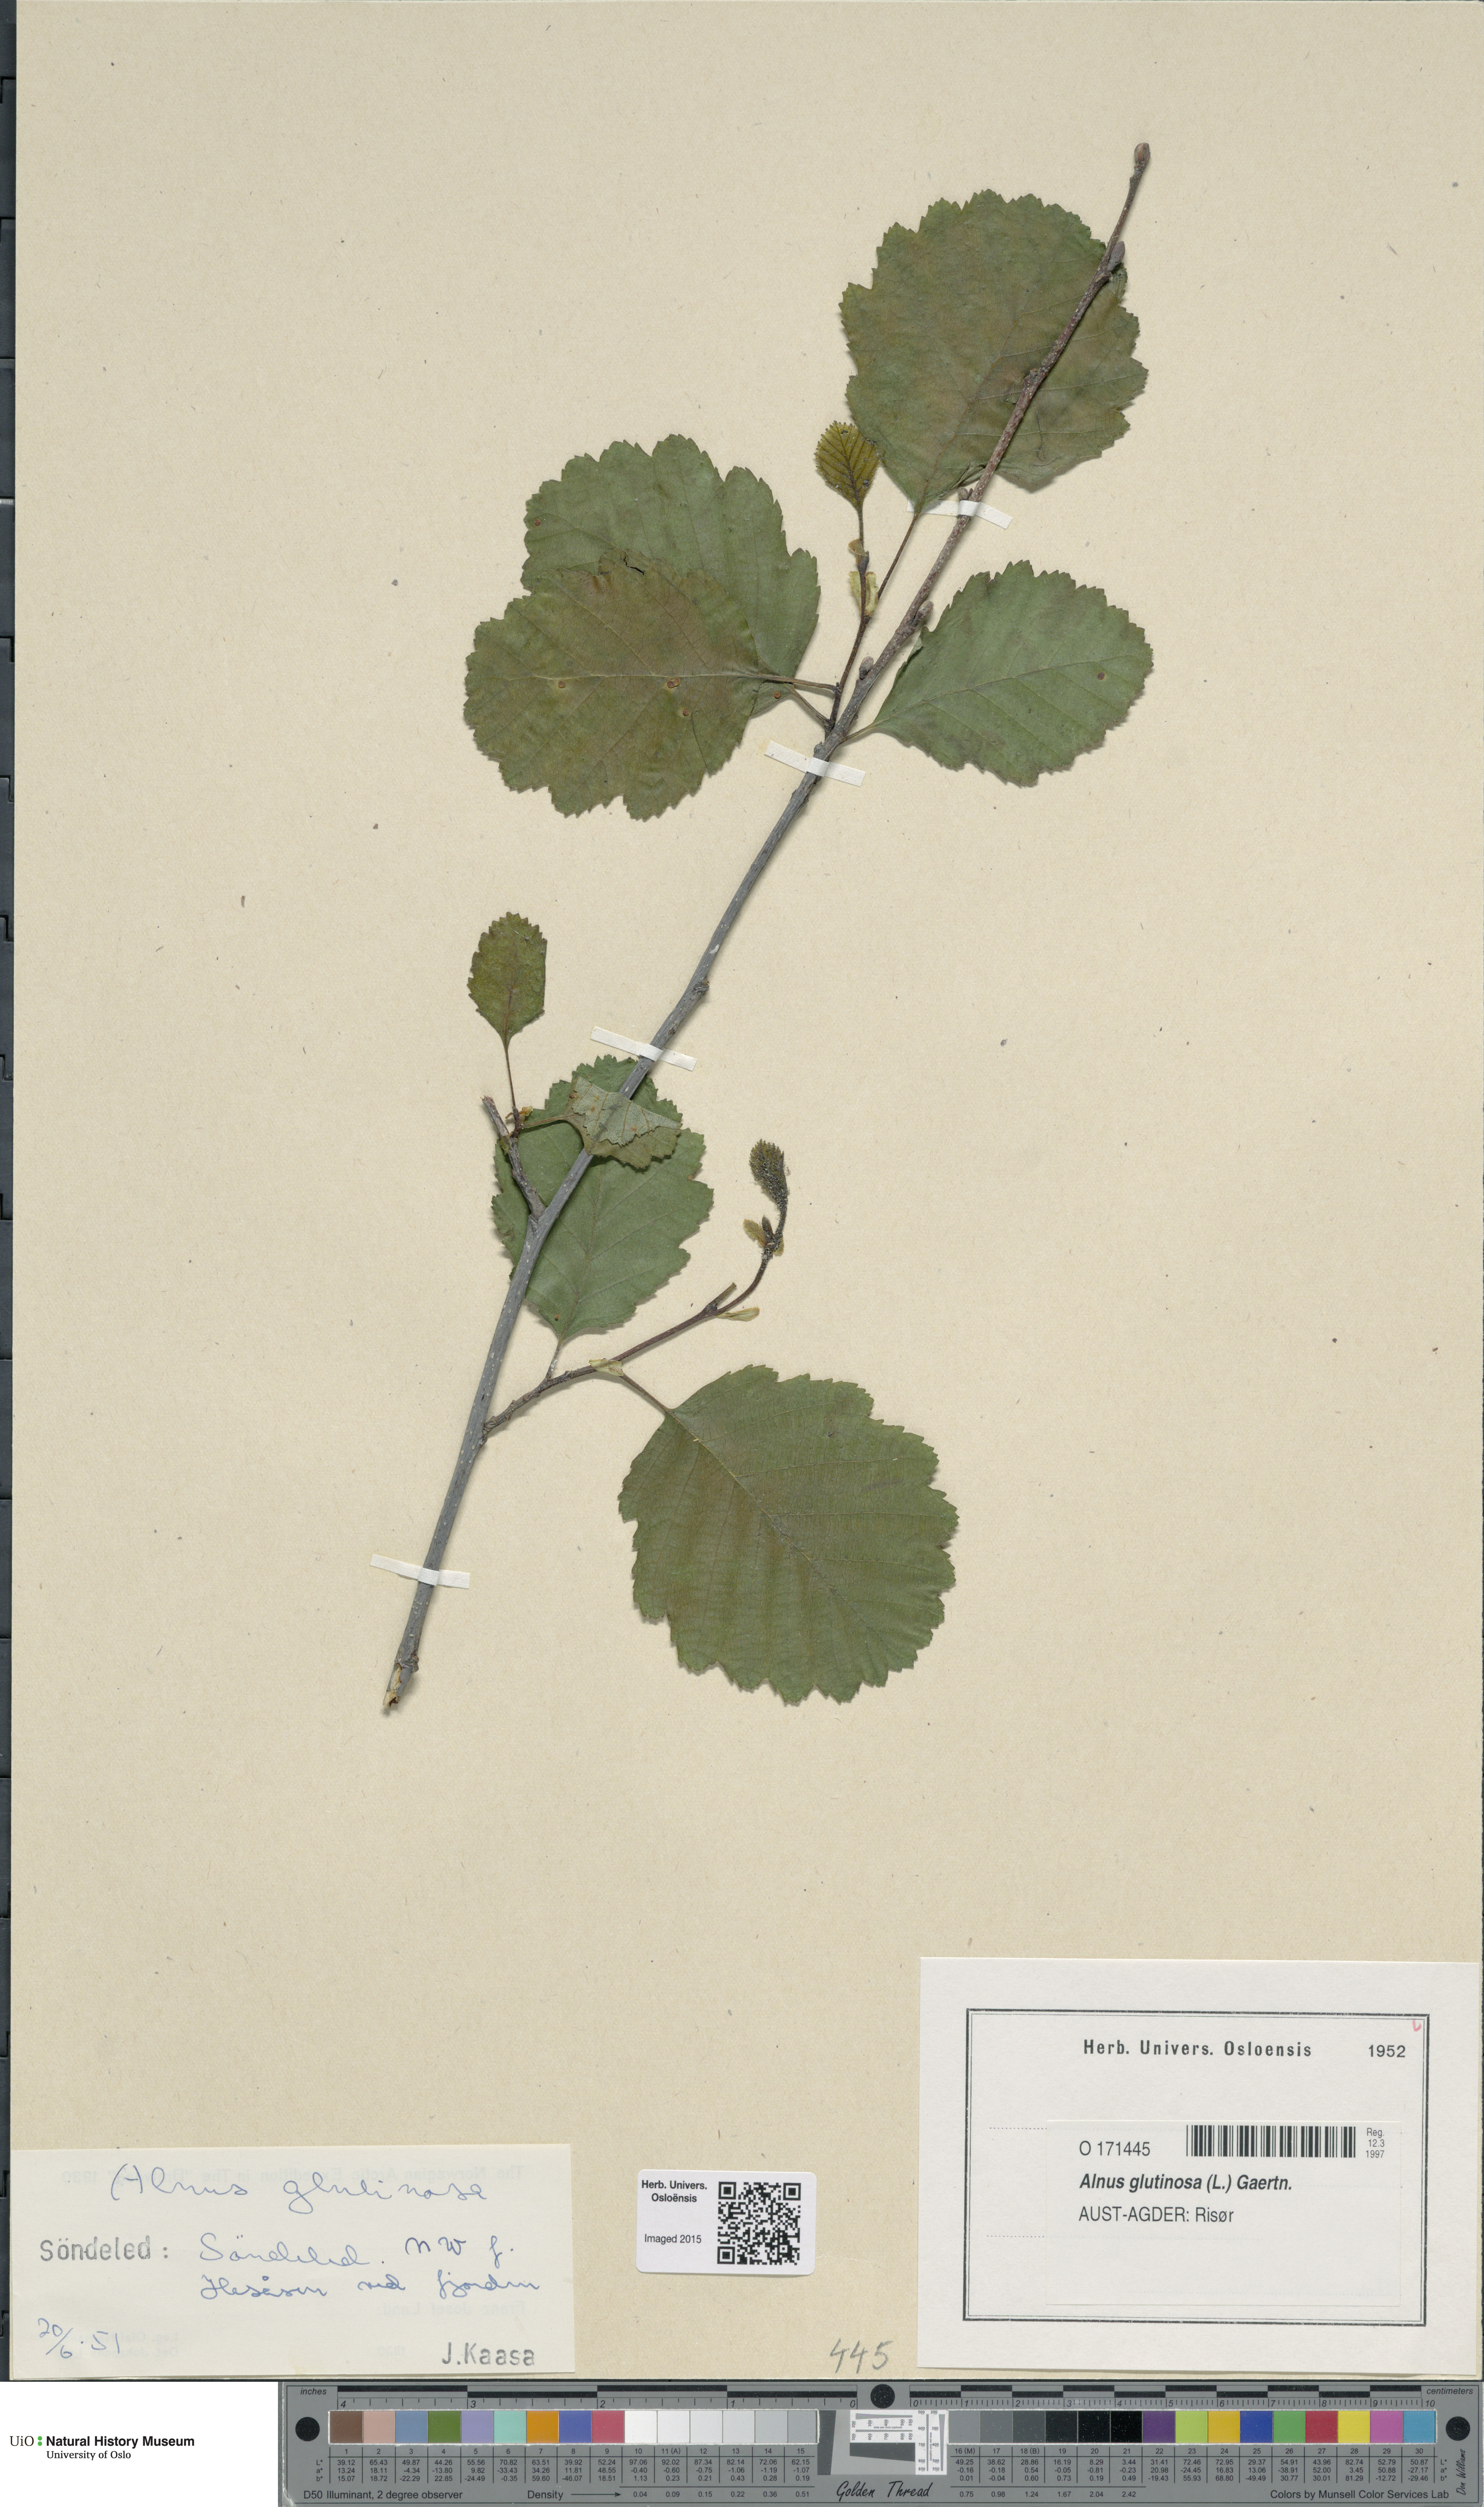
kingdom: Plantae
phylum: Tracheophyta
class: Magnoliopsida
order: Fagales
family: Betulaceae
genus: Alnus
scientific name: Alnus glutinosa
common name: Black alder
